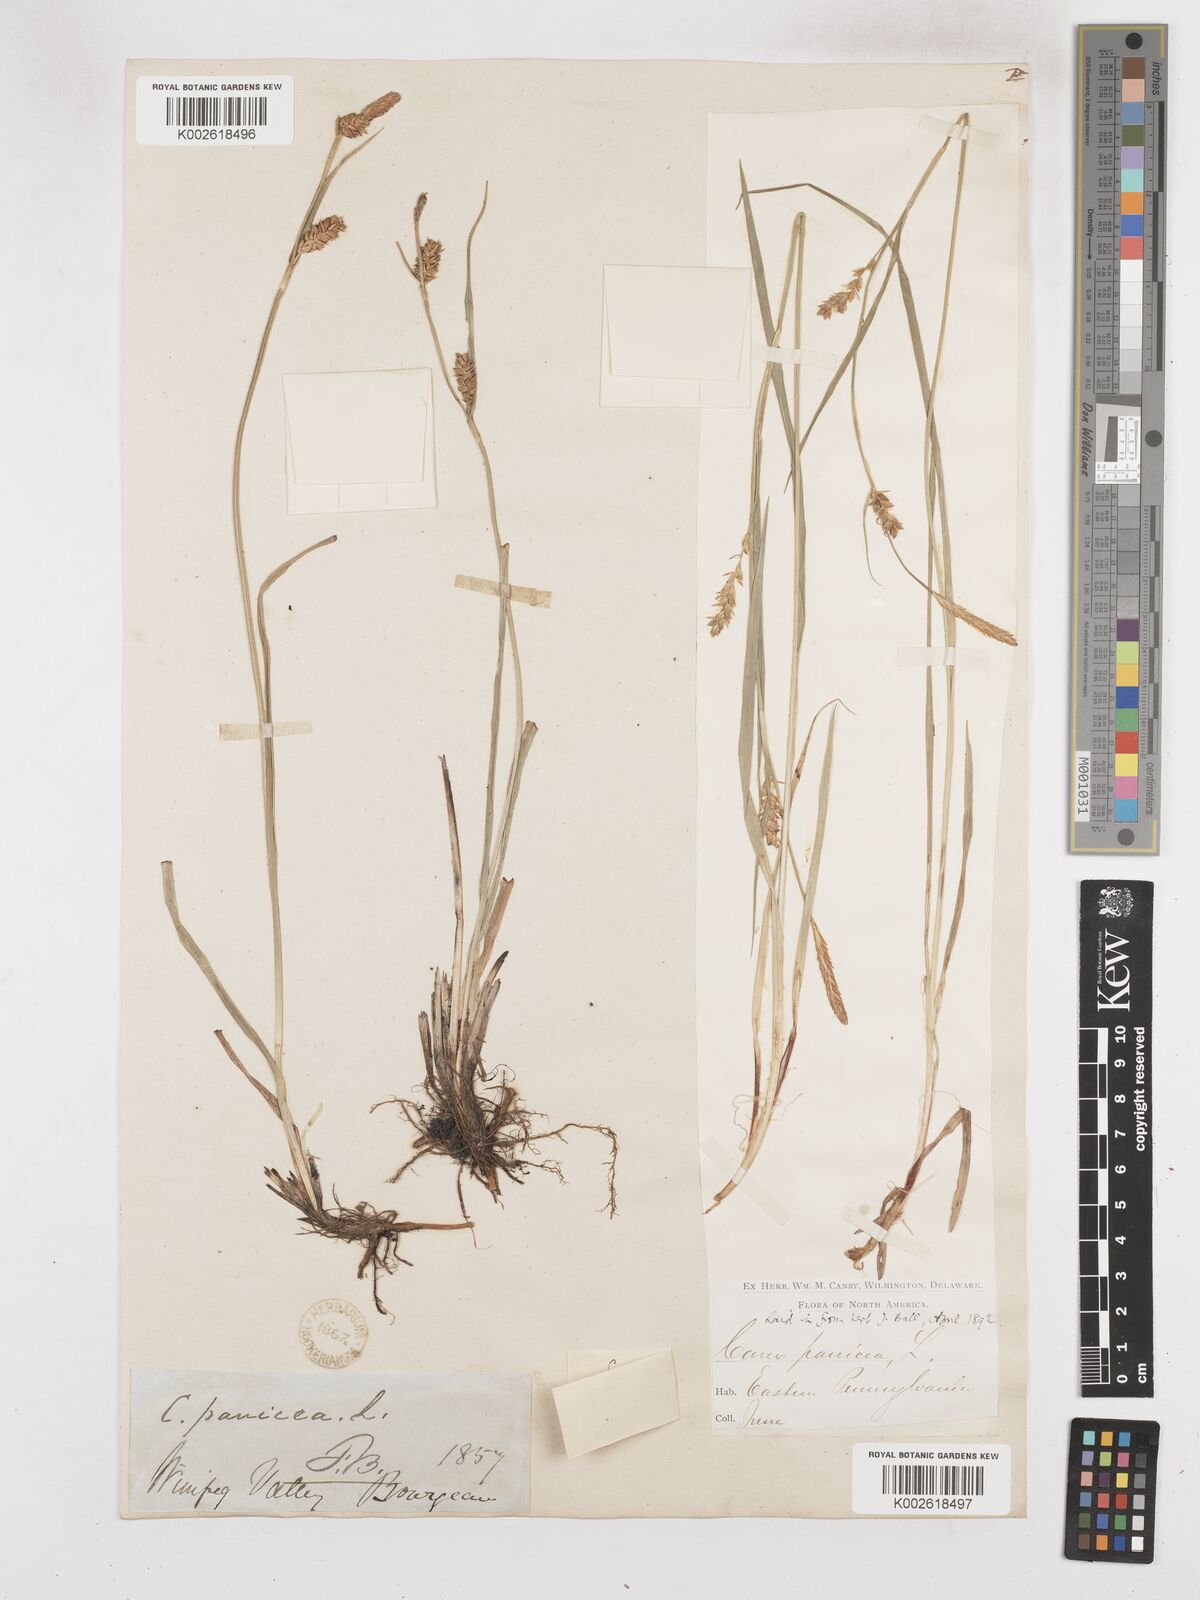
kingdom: Plantae
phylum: Tracheophyta
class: Liliopsida
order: Poales
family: Cyperaceae
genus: Carex
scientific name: Carex meadii
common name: Mead's sedge
